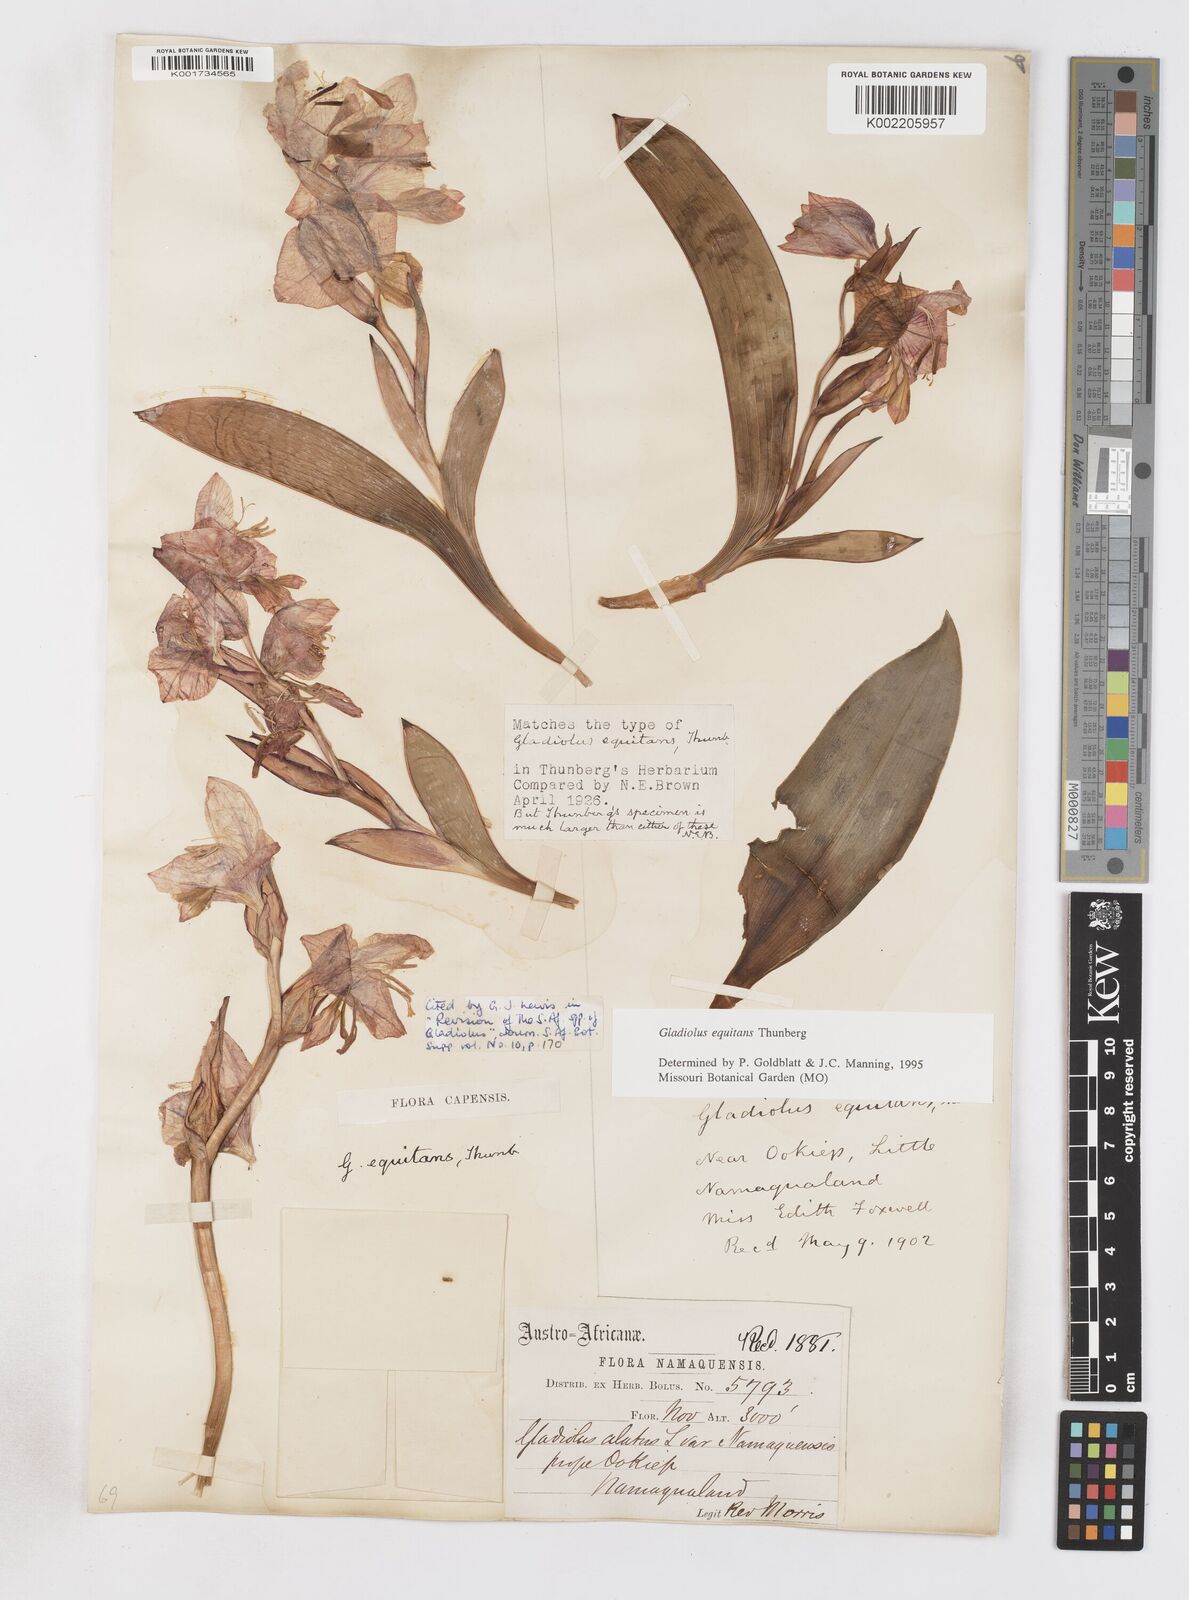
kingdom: Plantae
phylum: Tracheophyta
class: Liliopsida
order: Asparagales
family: Iridaceae
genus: Gladiolus
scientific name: Gladiolus equitans
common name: Large red kalkoentjie
